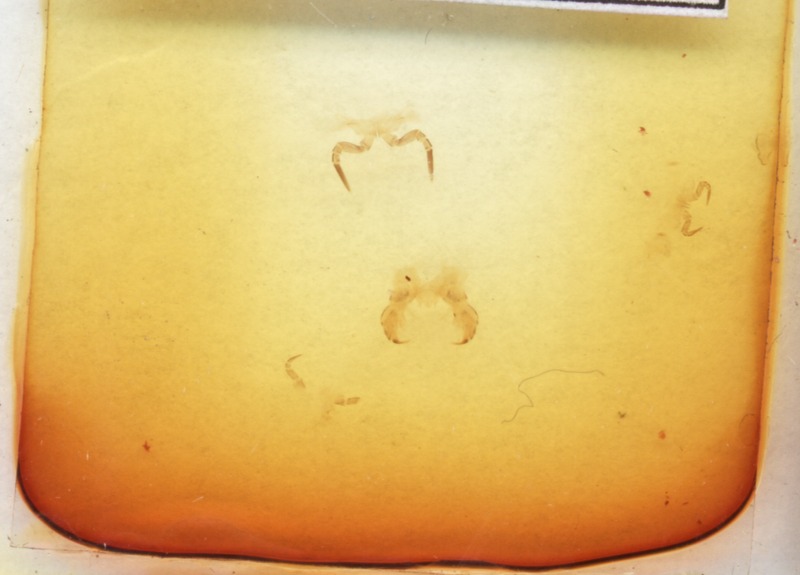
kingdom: Animalia
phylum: Arthropoda
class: Diplopoda
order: Glomerida
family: Glomeridae
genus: Glomeris
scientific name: Glomeris romana
